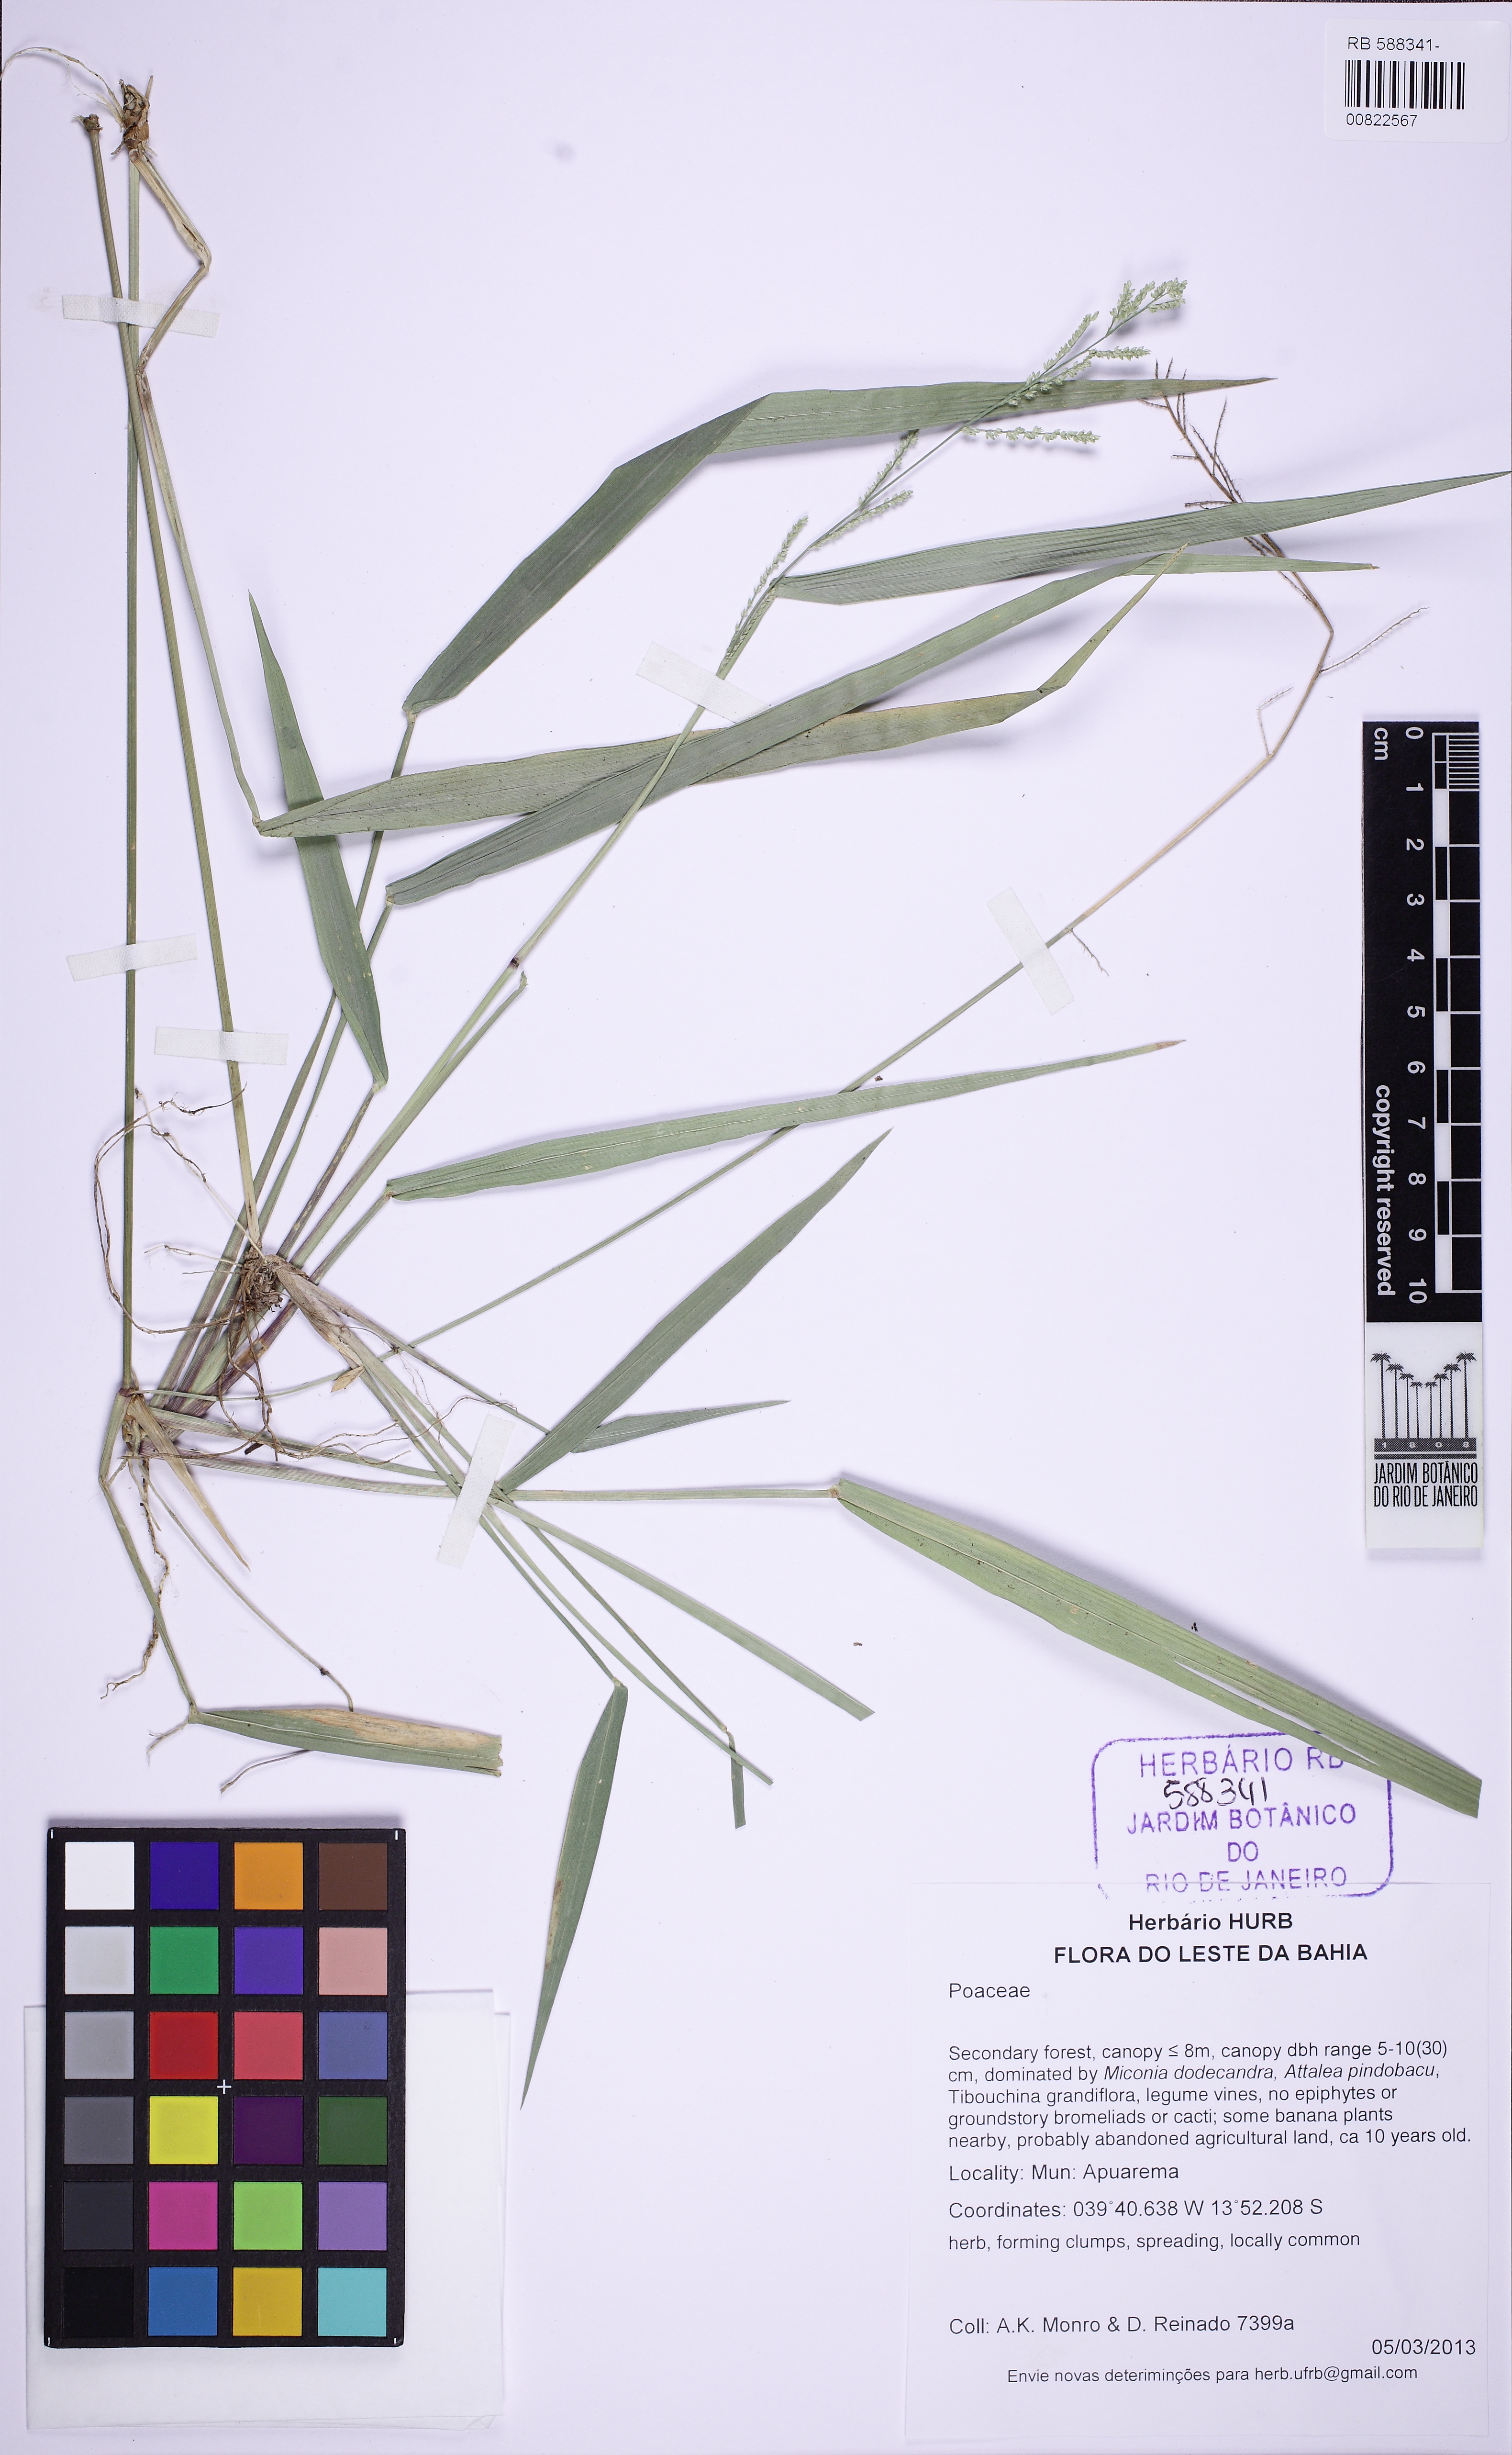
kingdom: Plantae
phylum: Tracheophyta
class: Liliopsida
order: Poales
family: Poaceae
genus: Rugoloa
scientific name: Rugoloa pilosa
